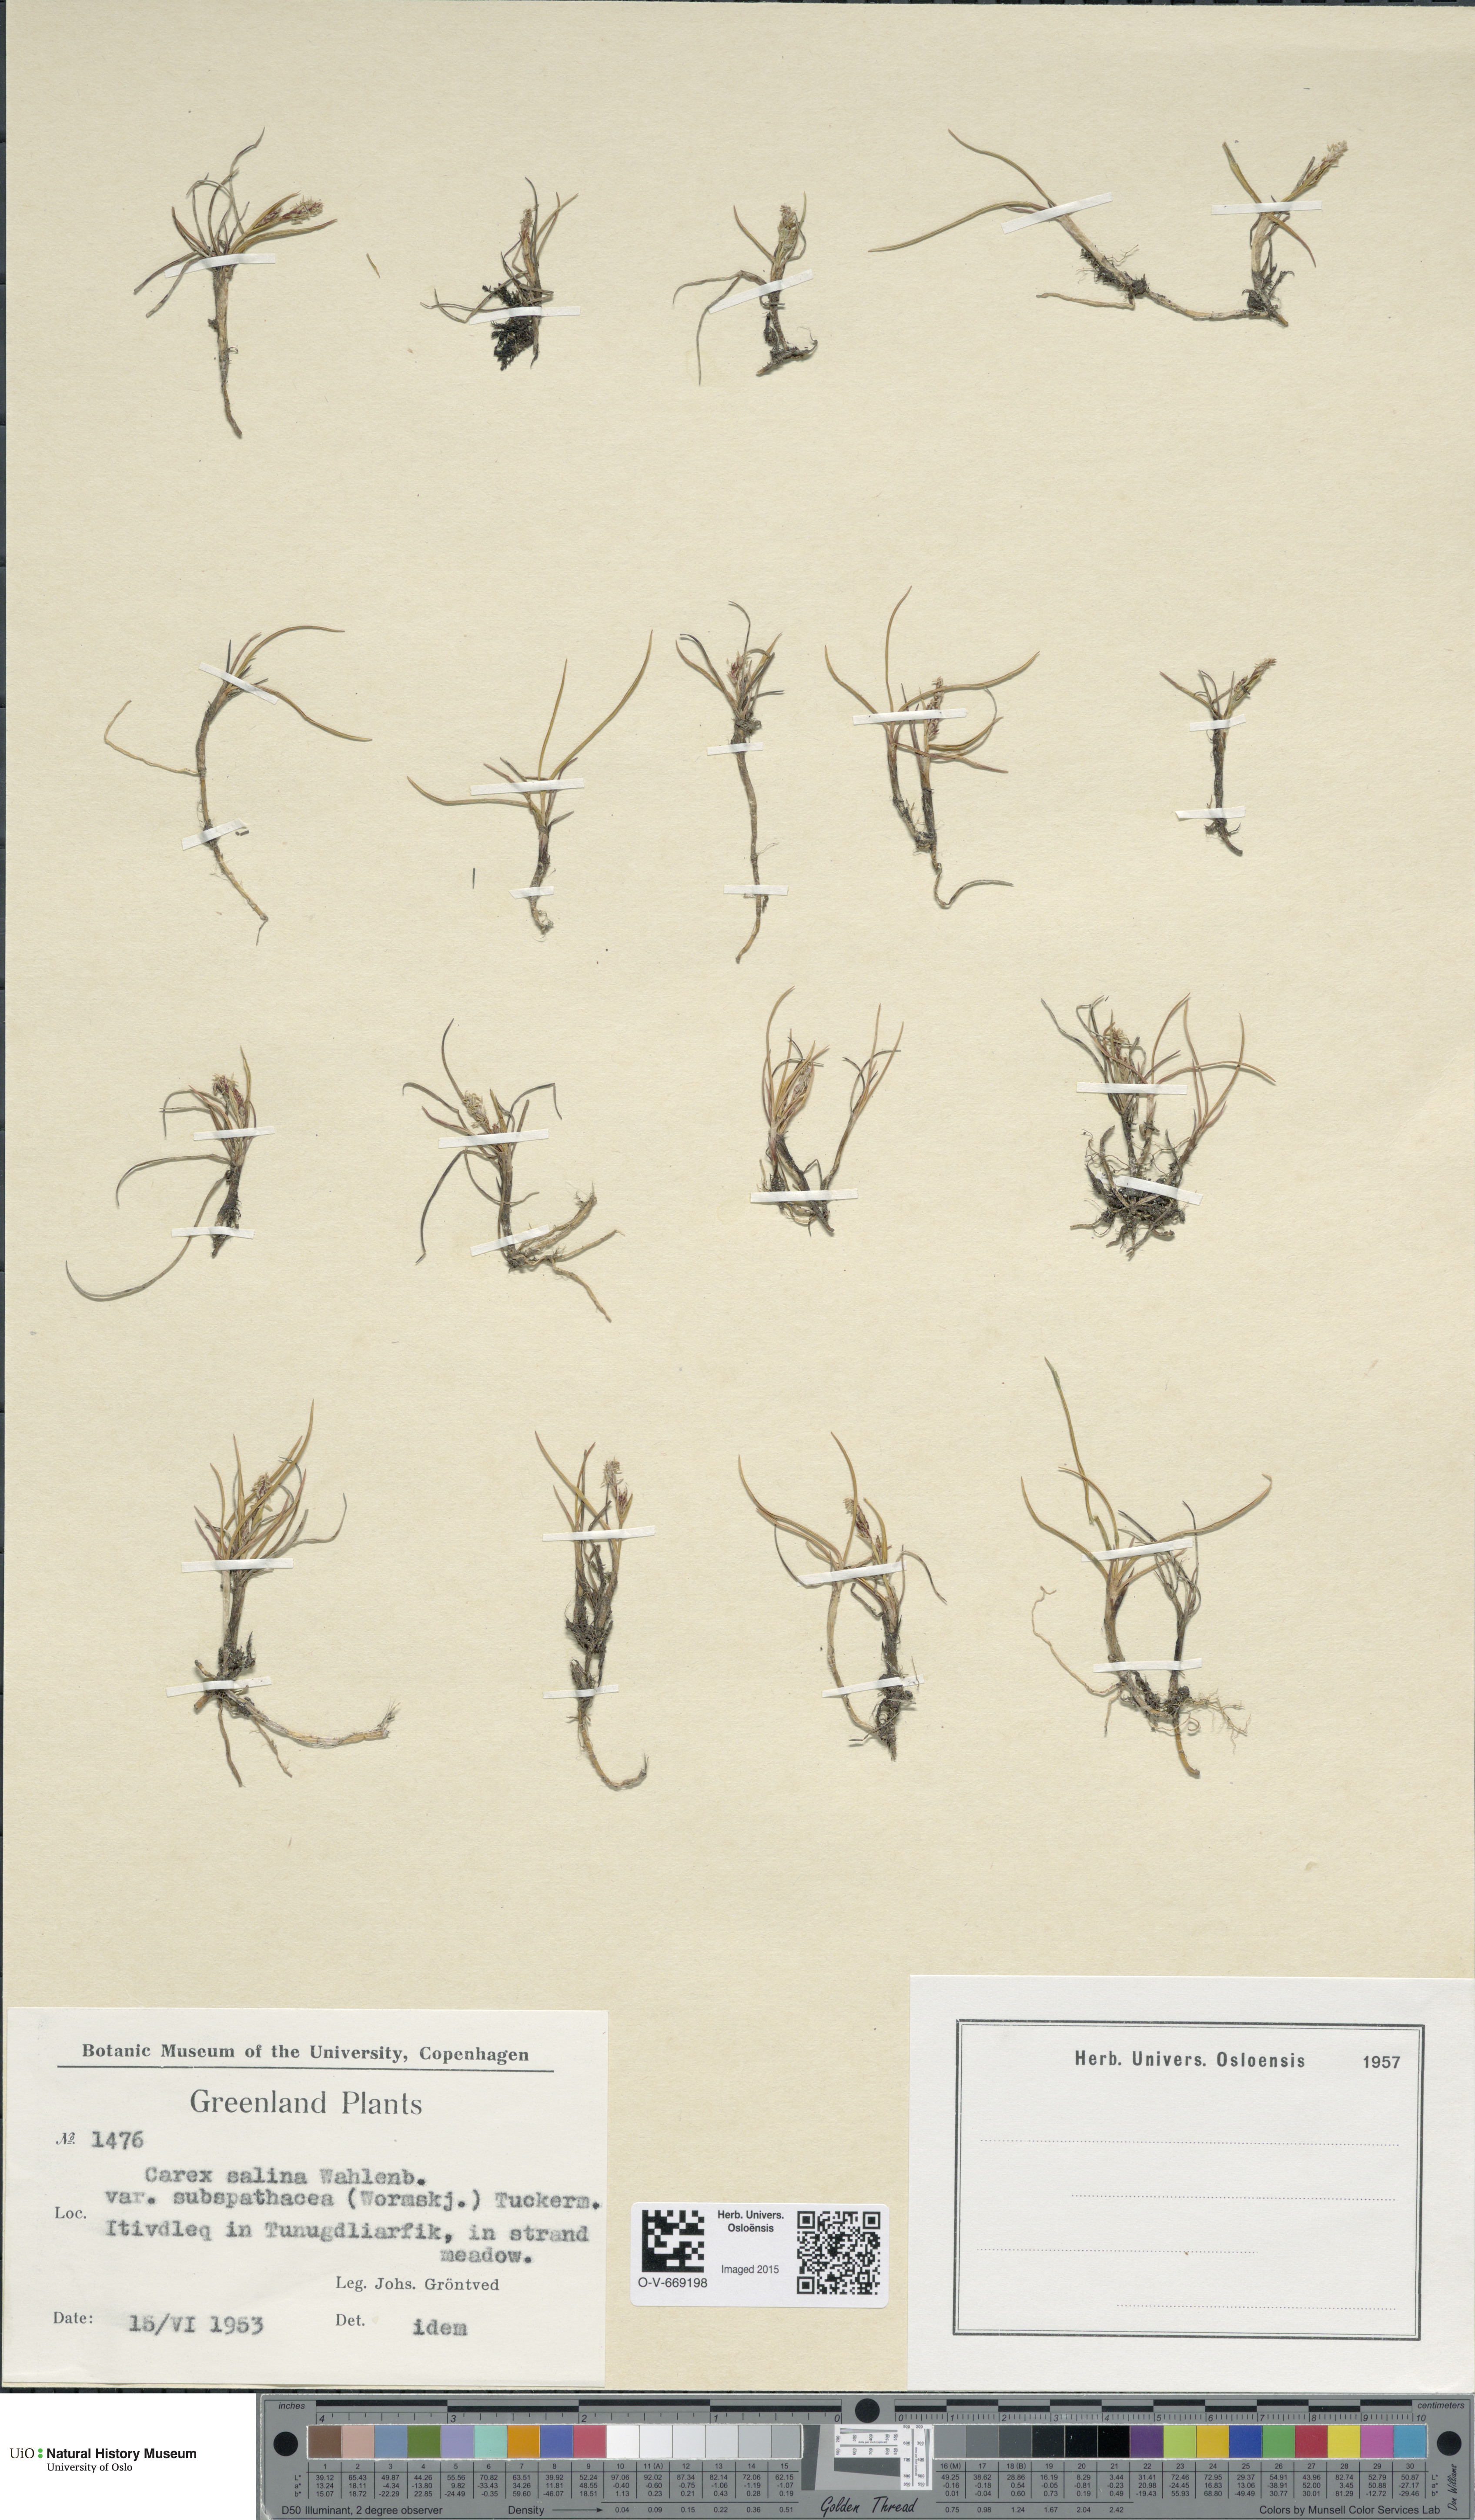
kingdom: Plantae
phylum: Tracheophyta
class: Liliopsida
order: Poales
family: Cyperaceae
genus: Carex
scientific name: Carex subspathacea
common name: Hoppner's sedge
